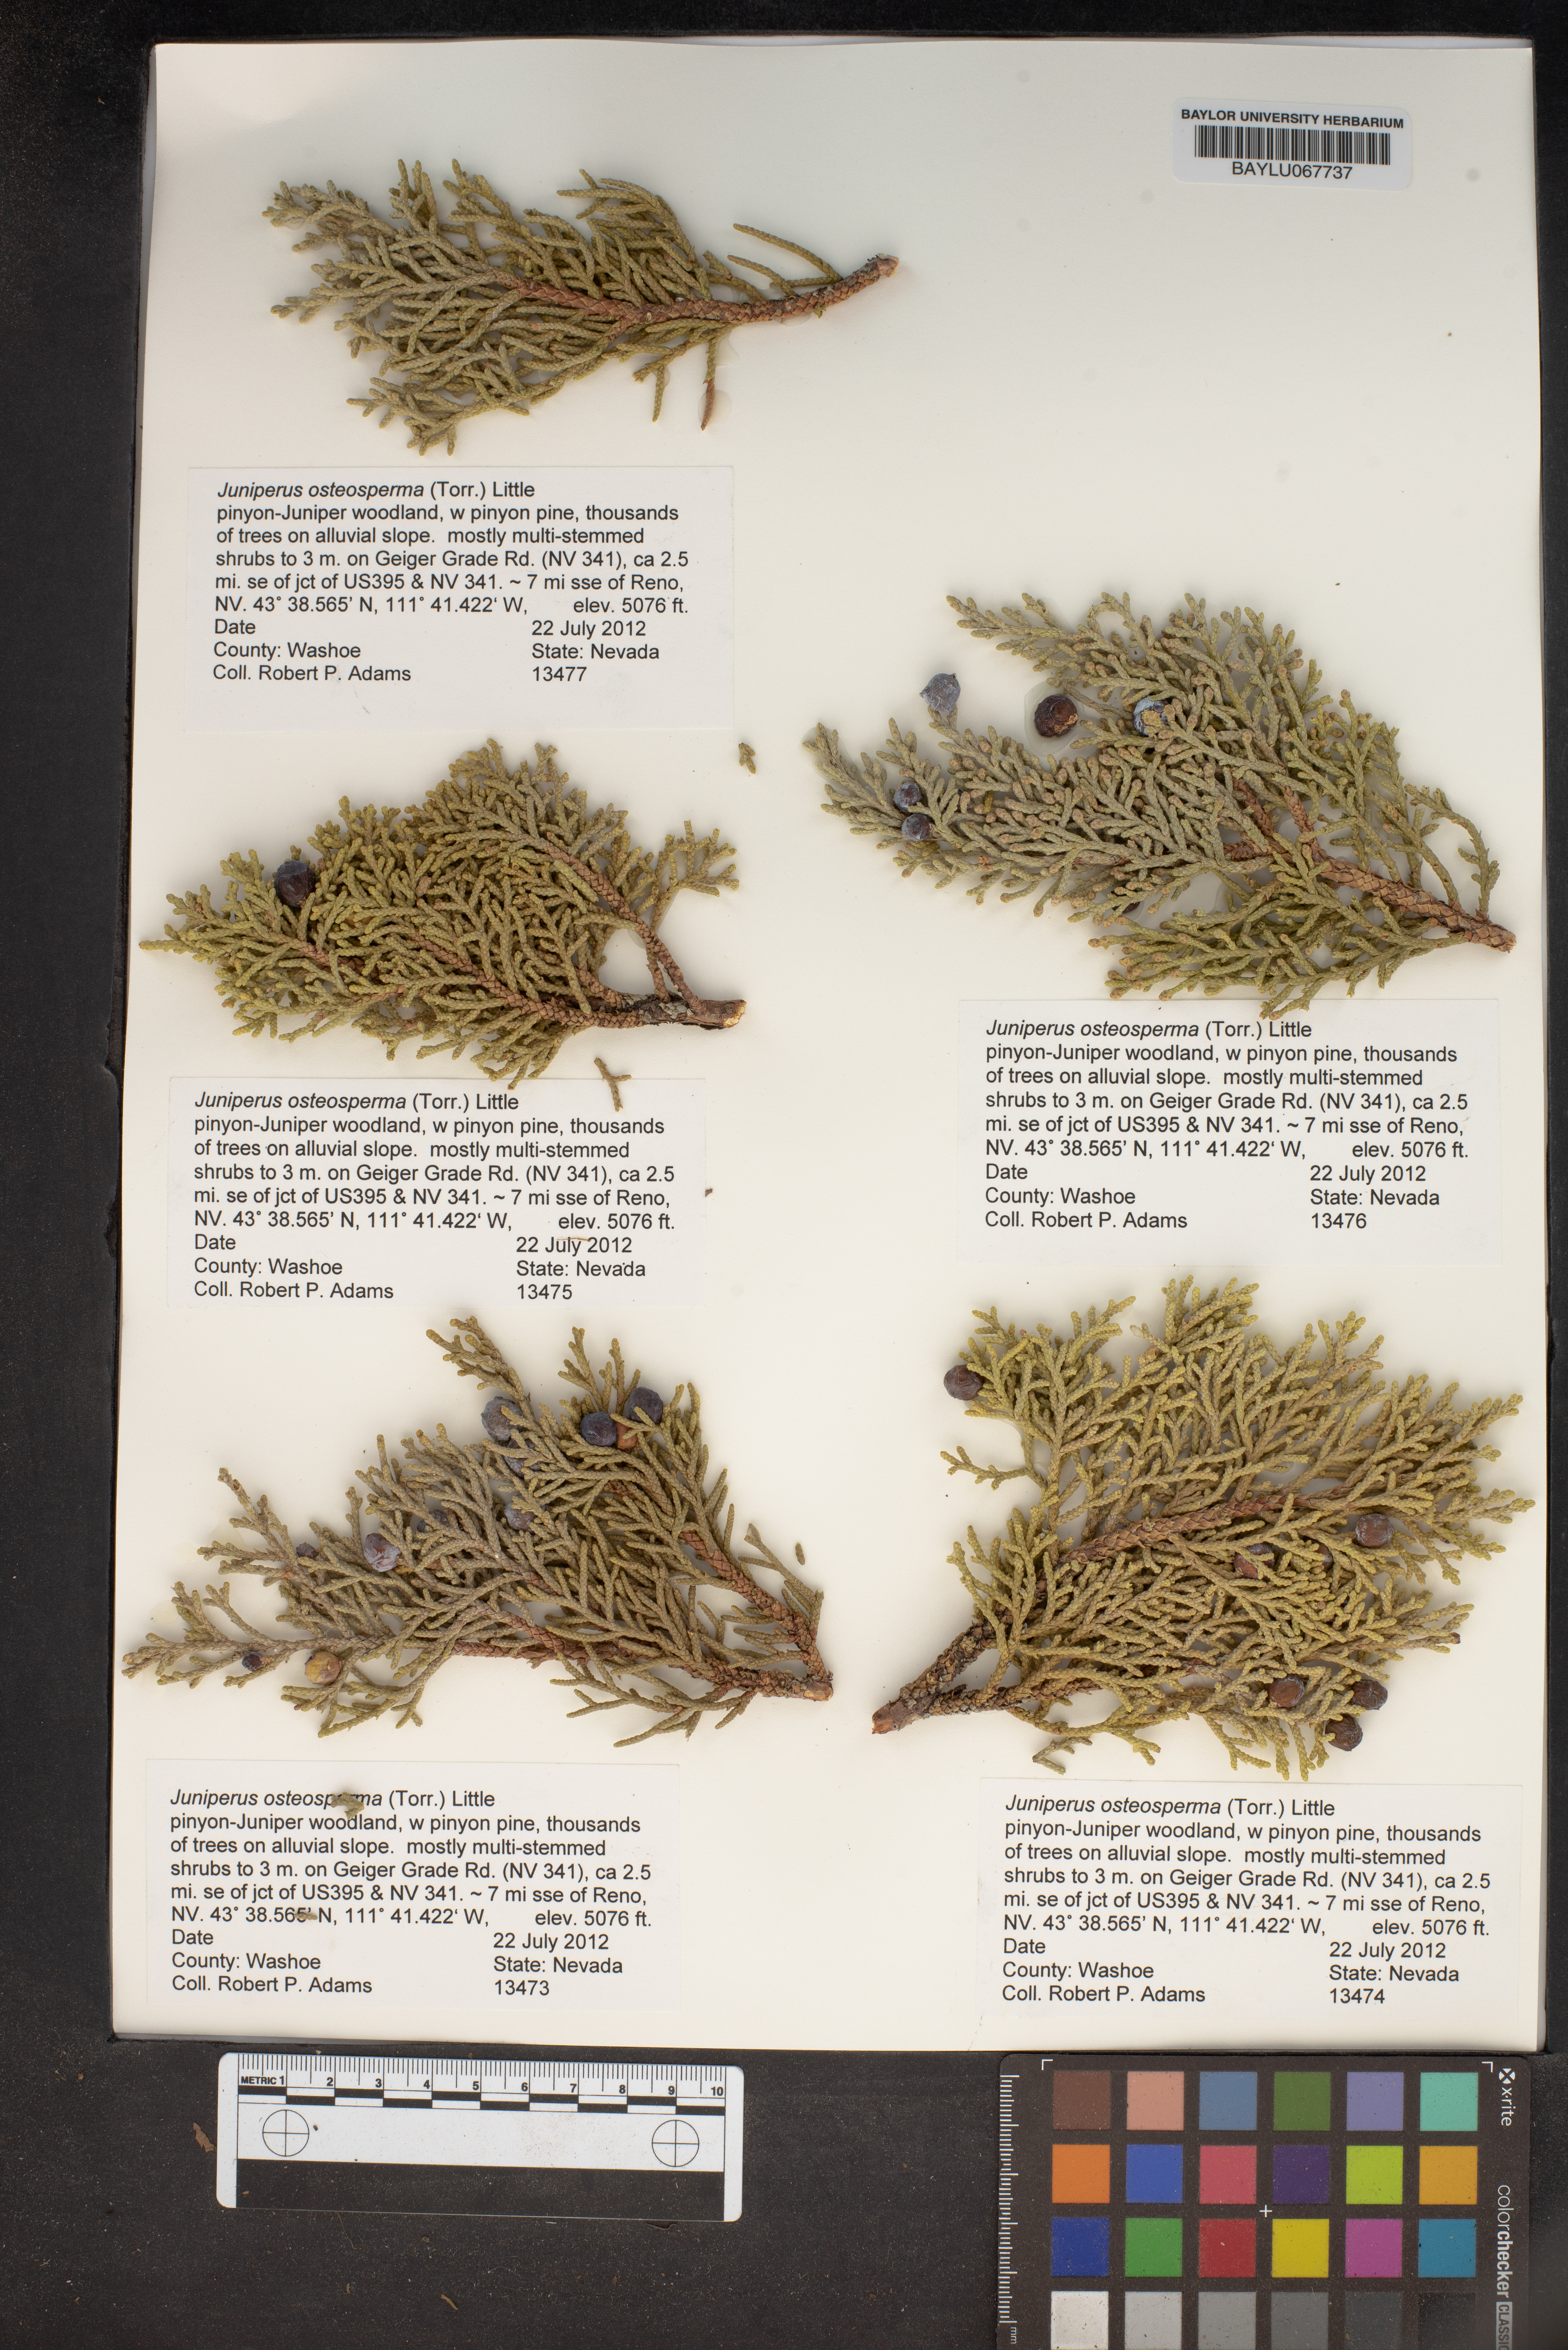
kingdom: Plantae
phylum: Tracheophyta
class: Pinopsida
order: Pinales
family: Cupressaceae
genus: Juniperus
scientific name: Juniperus osteosperma
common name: Utah juniper
